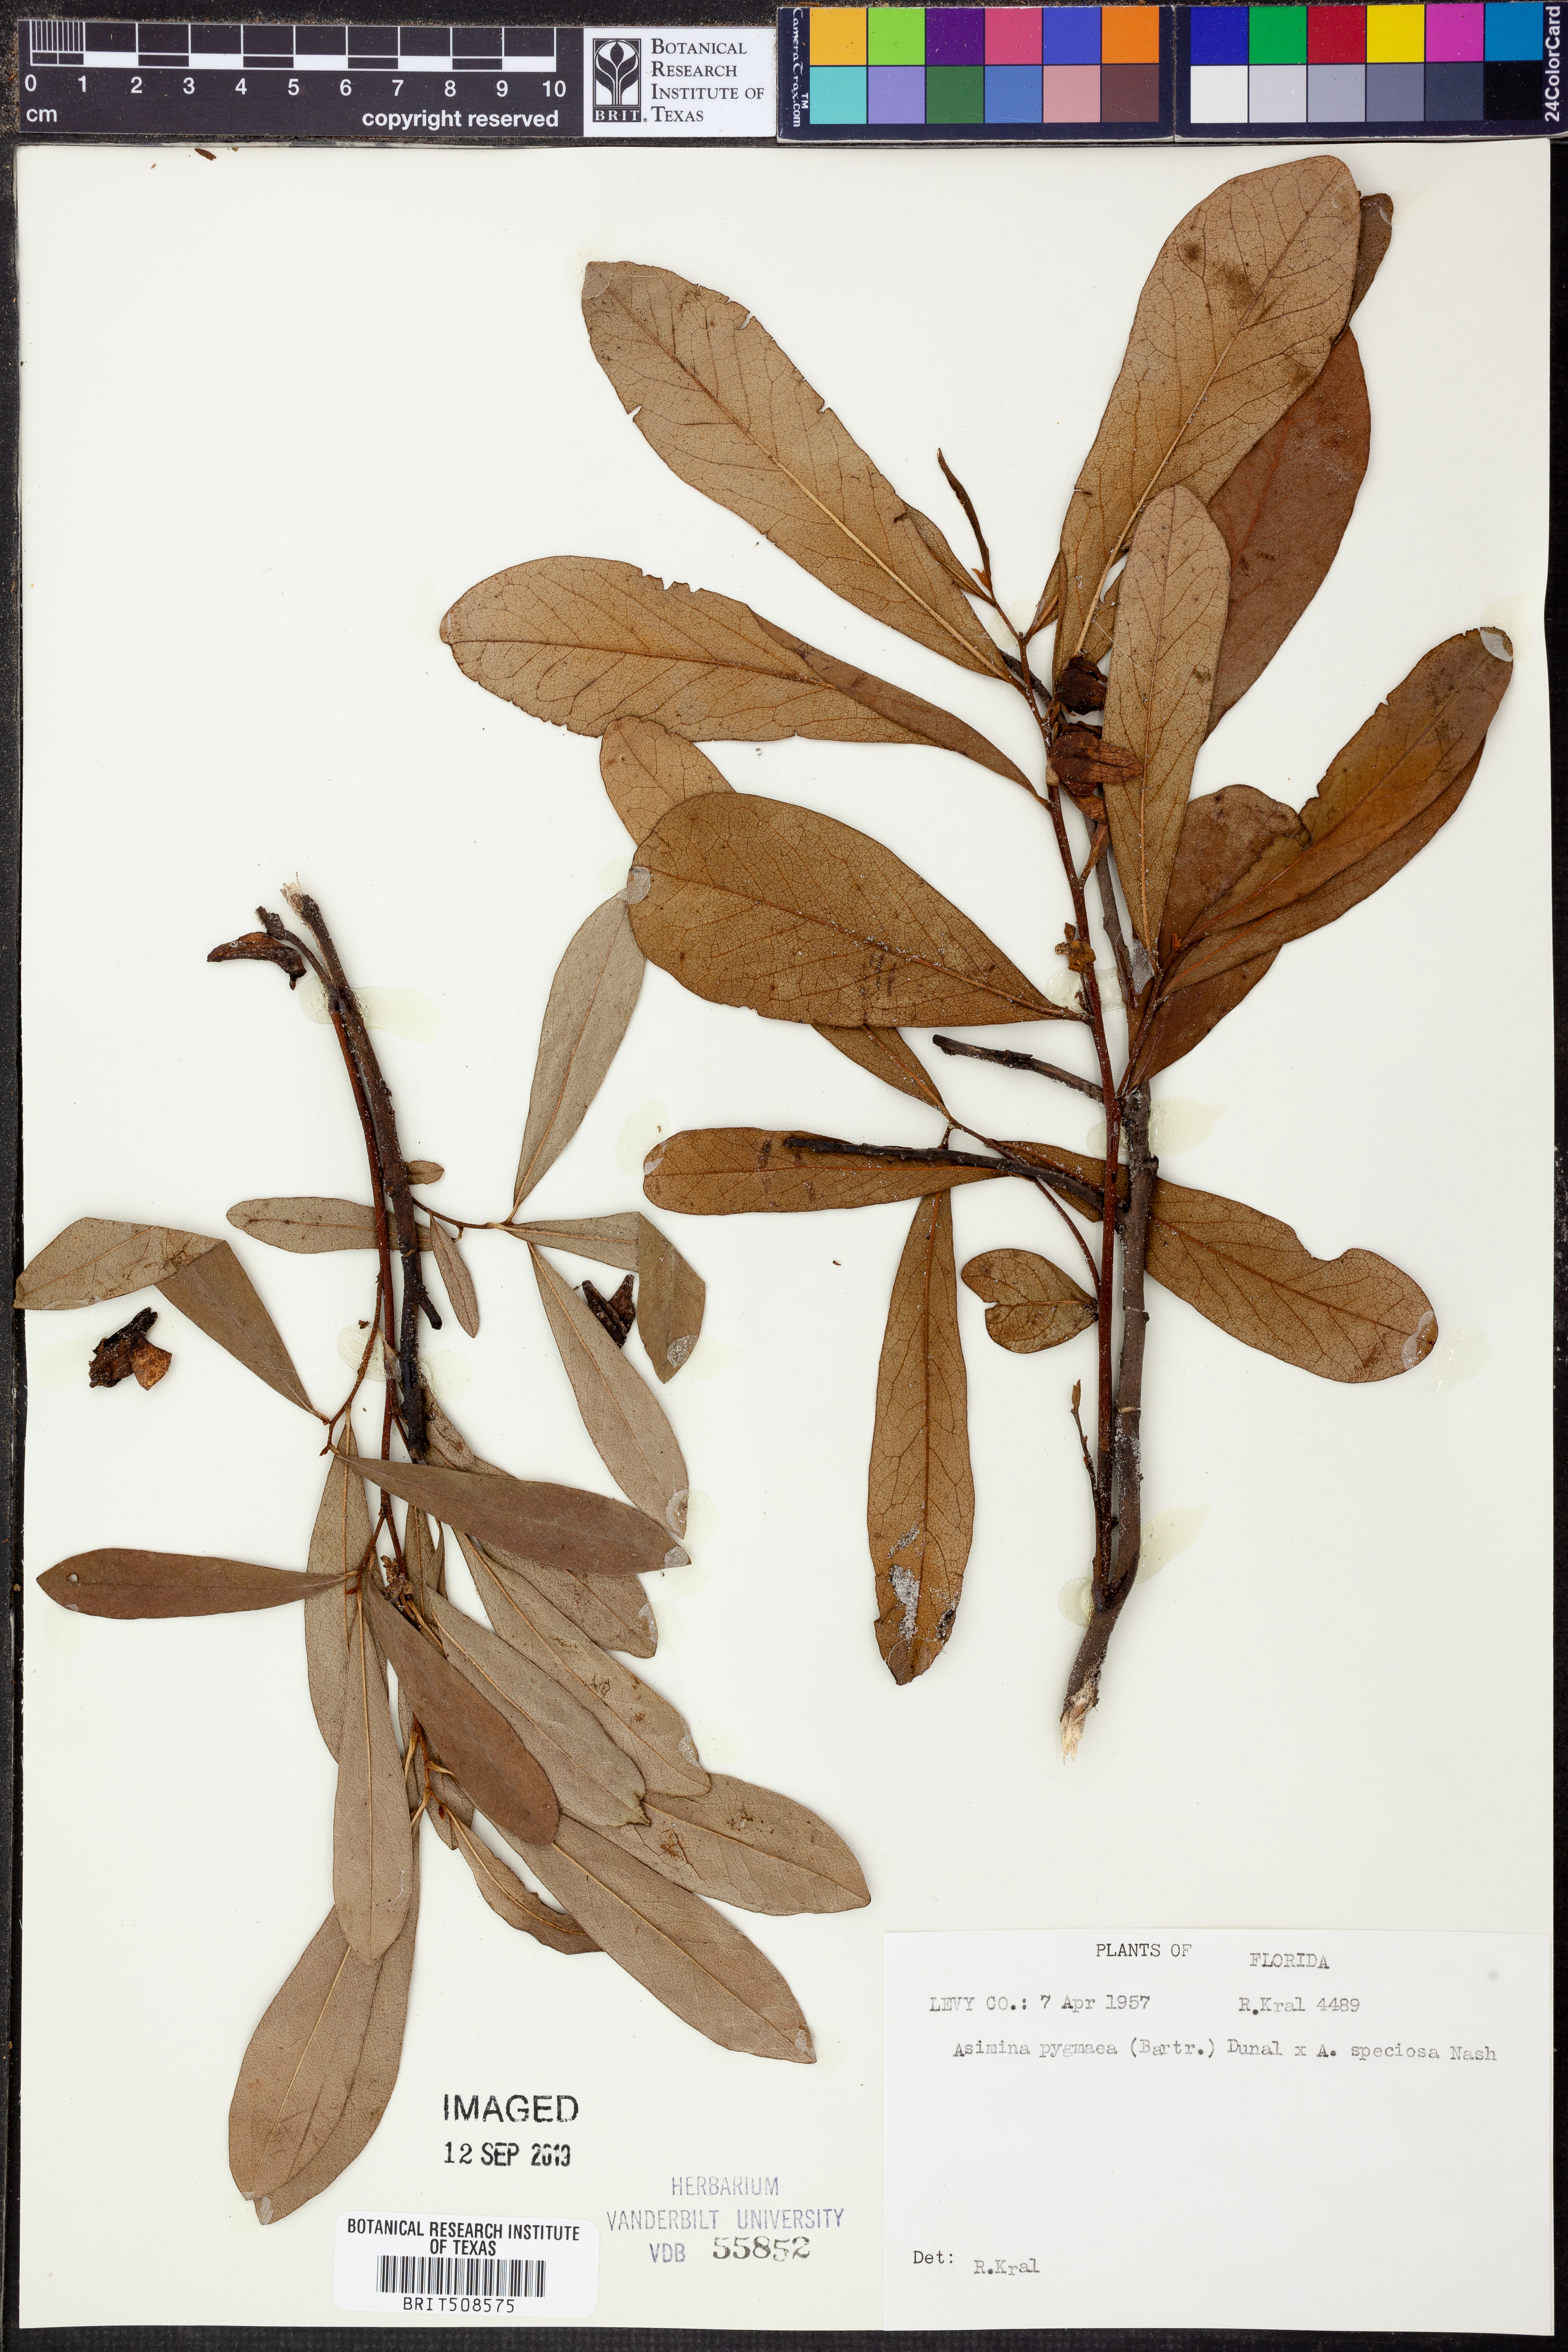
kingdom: Plantae
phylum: Tracheophyta
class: Magnoliopsida
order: Magnoliales
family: Annonaceae
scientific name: Annonaceae
